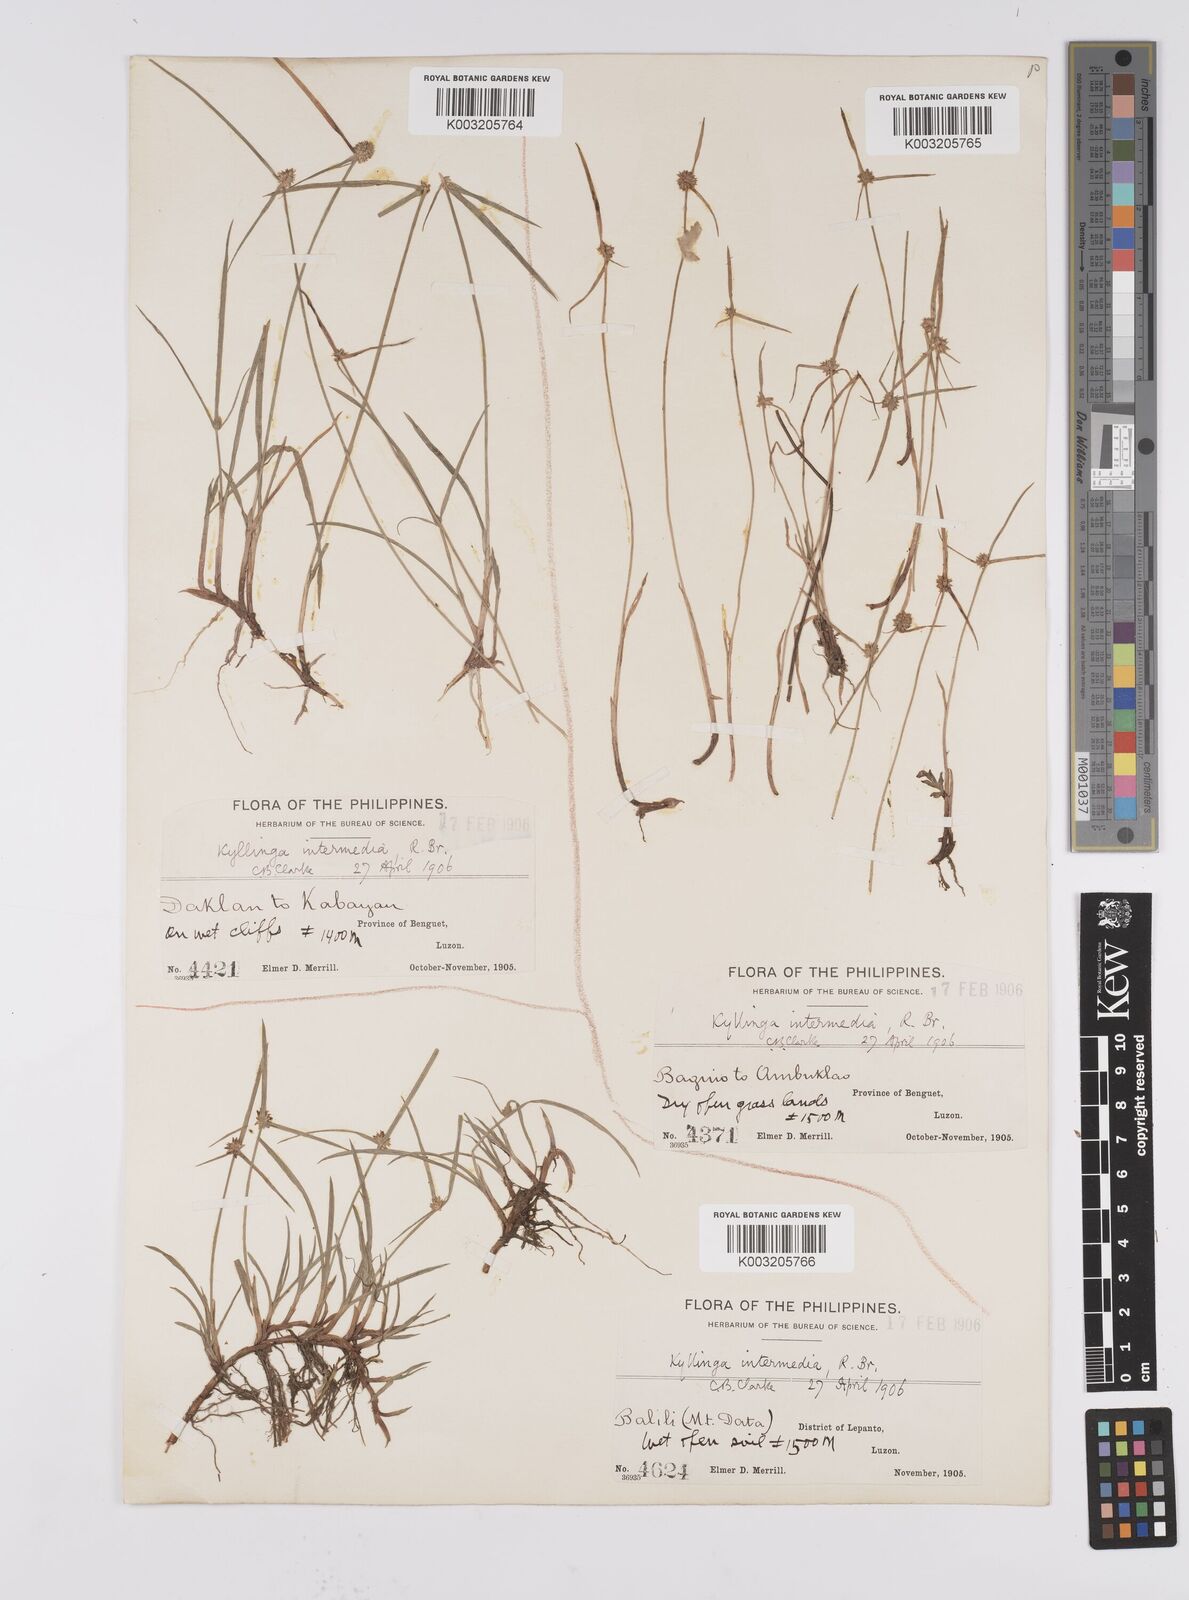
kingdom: Plantae
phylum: Tracheophyta
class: Liliopsida
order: Poales
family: Cyperaceae
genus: Cyperus
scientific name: Cyperus brevifolius
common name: Globe kyllinga
